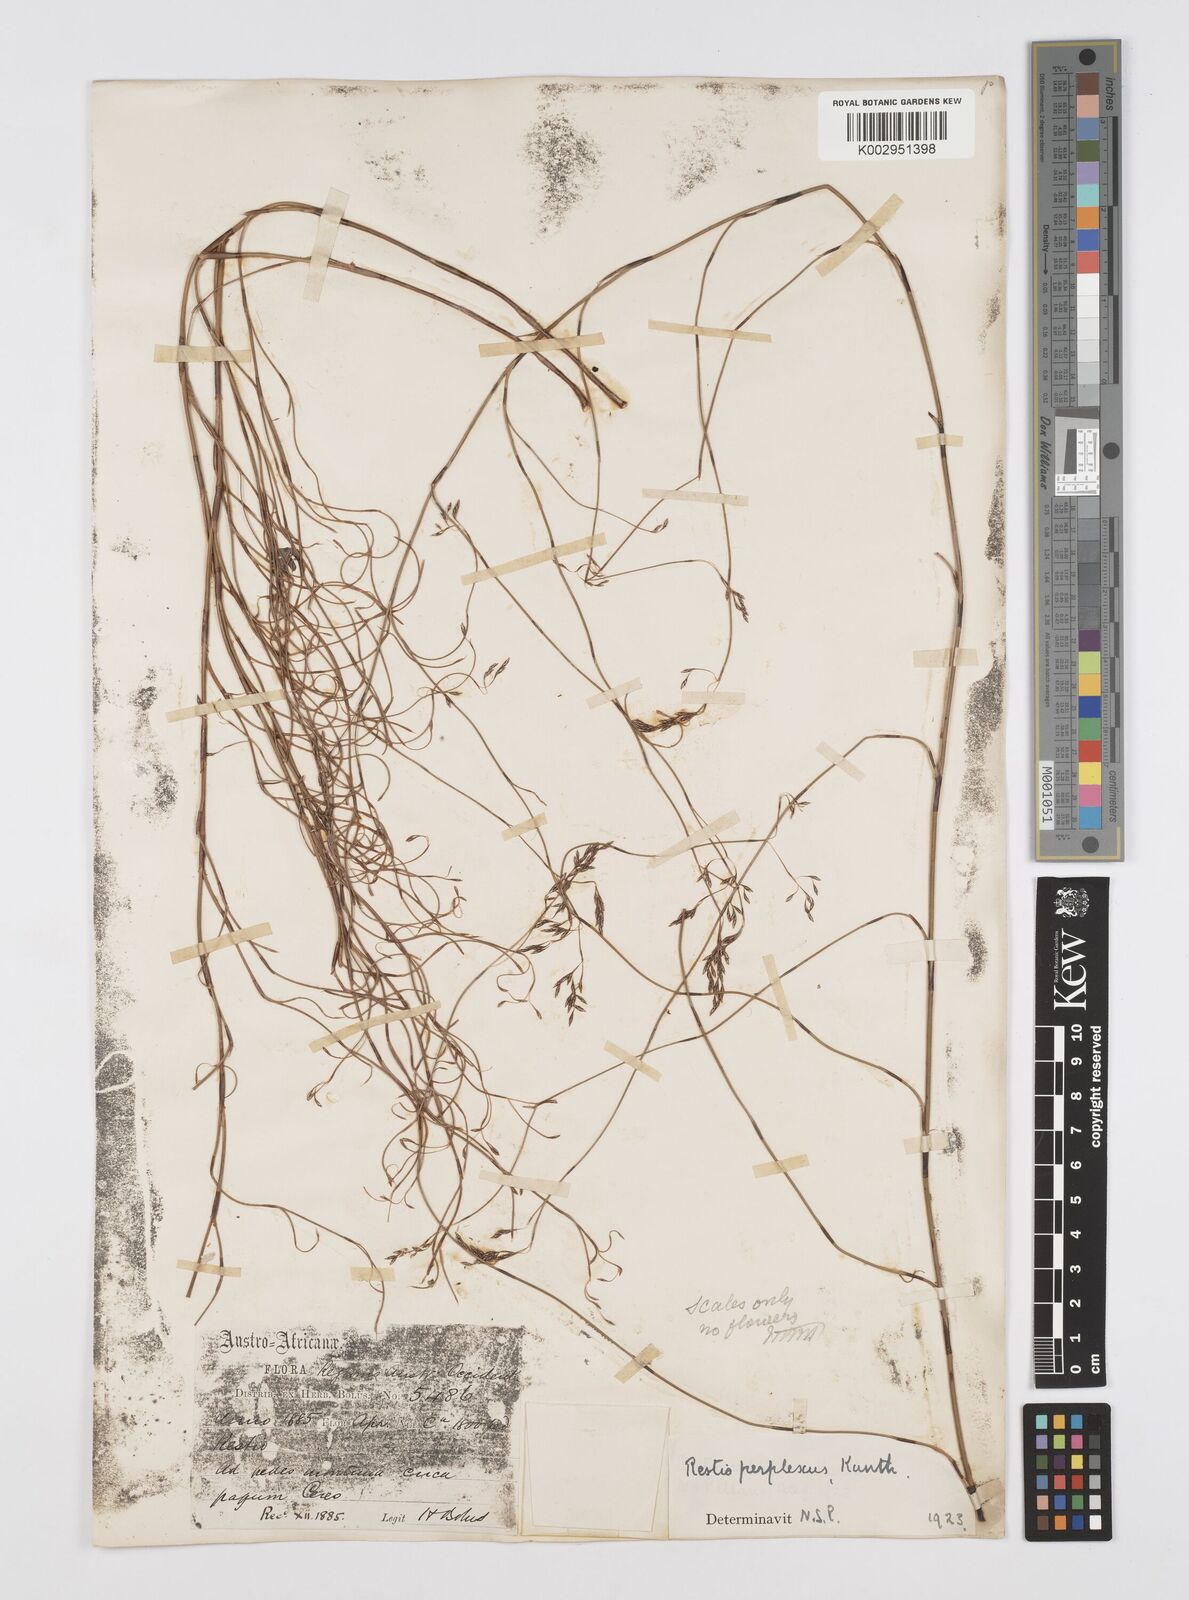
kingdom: Plantae
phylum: Tracheophyta
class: Liliopsida
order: Poales
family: Restionaceae
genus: Restio
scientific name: Restio perplexus
